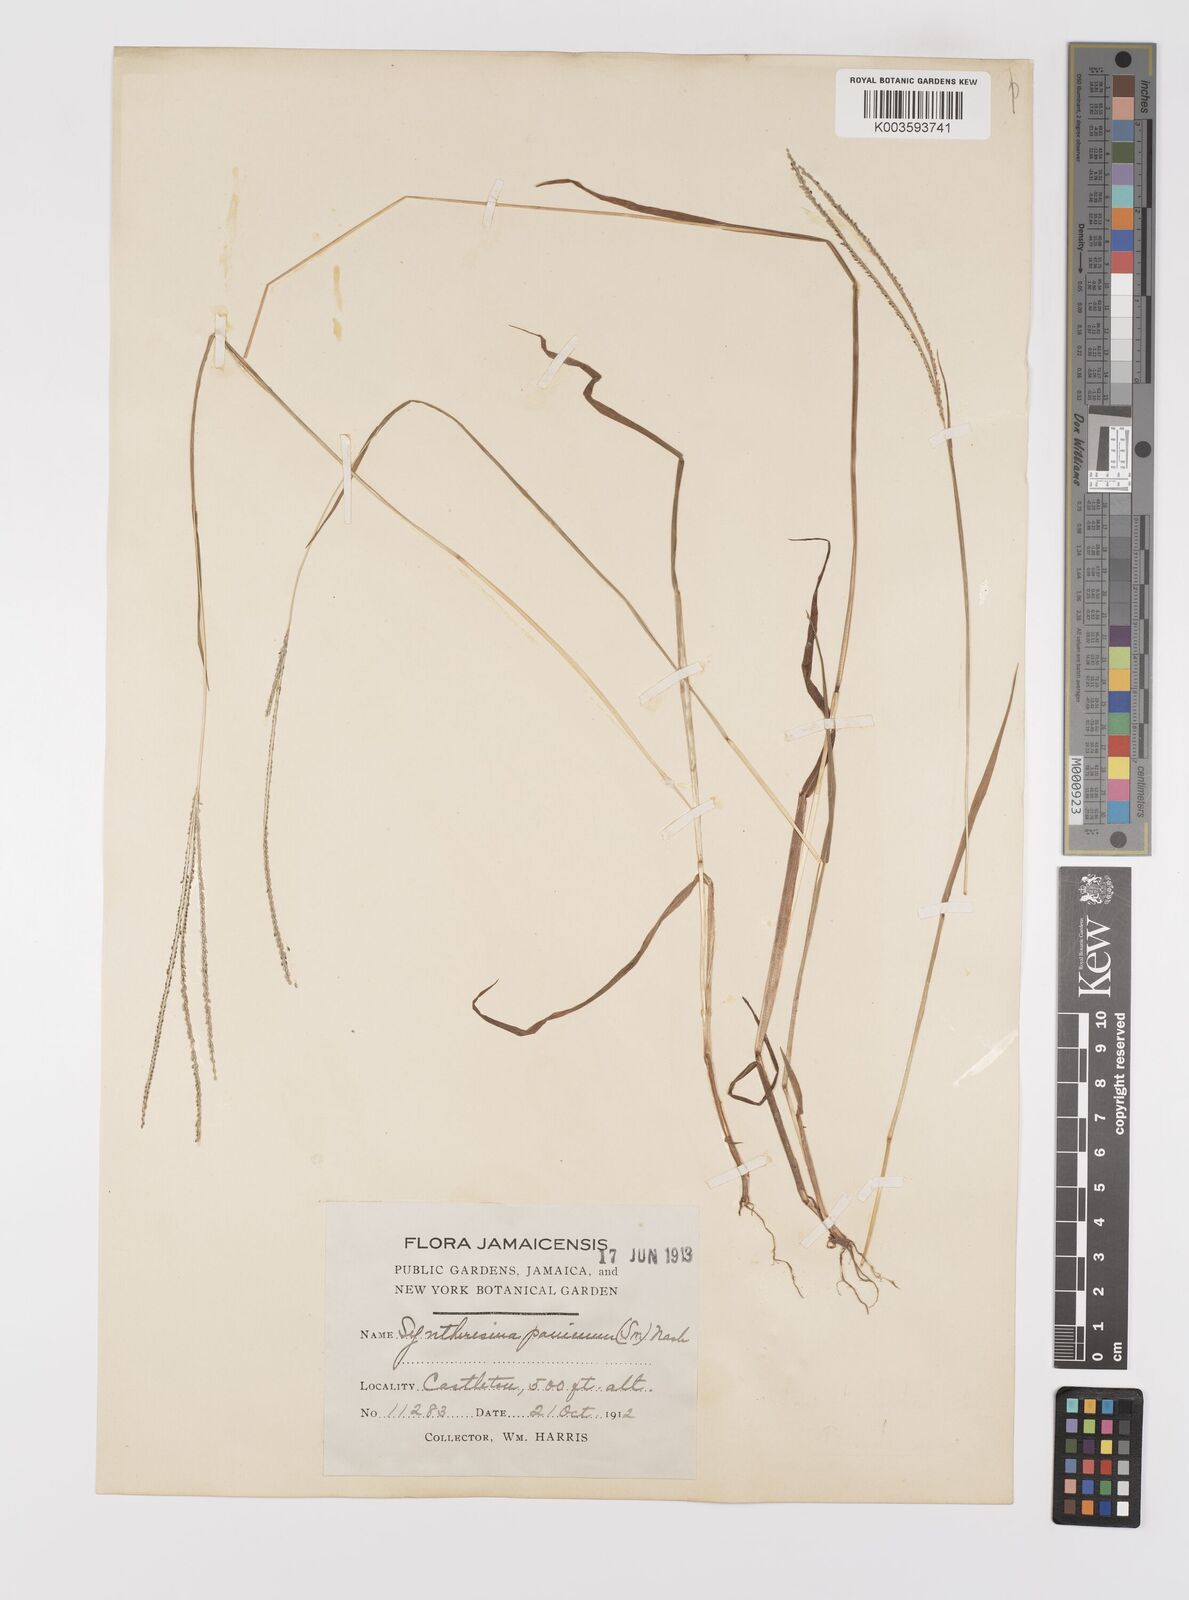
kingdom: Plantae
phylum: Tracheophyta
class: Liliopsida
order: Poales
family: Poaceae
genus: Digitaria
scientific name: Digitaria violascens
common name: Violet crabgrass
